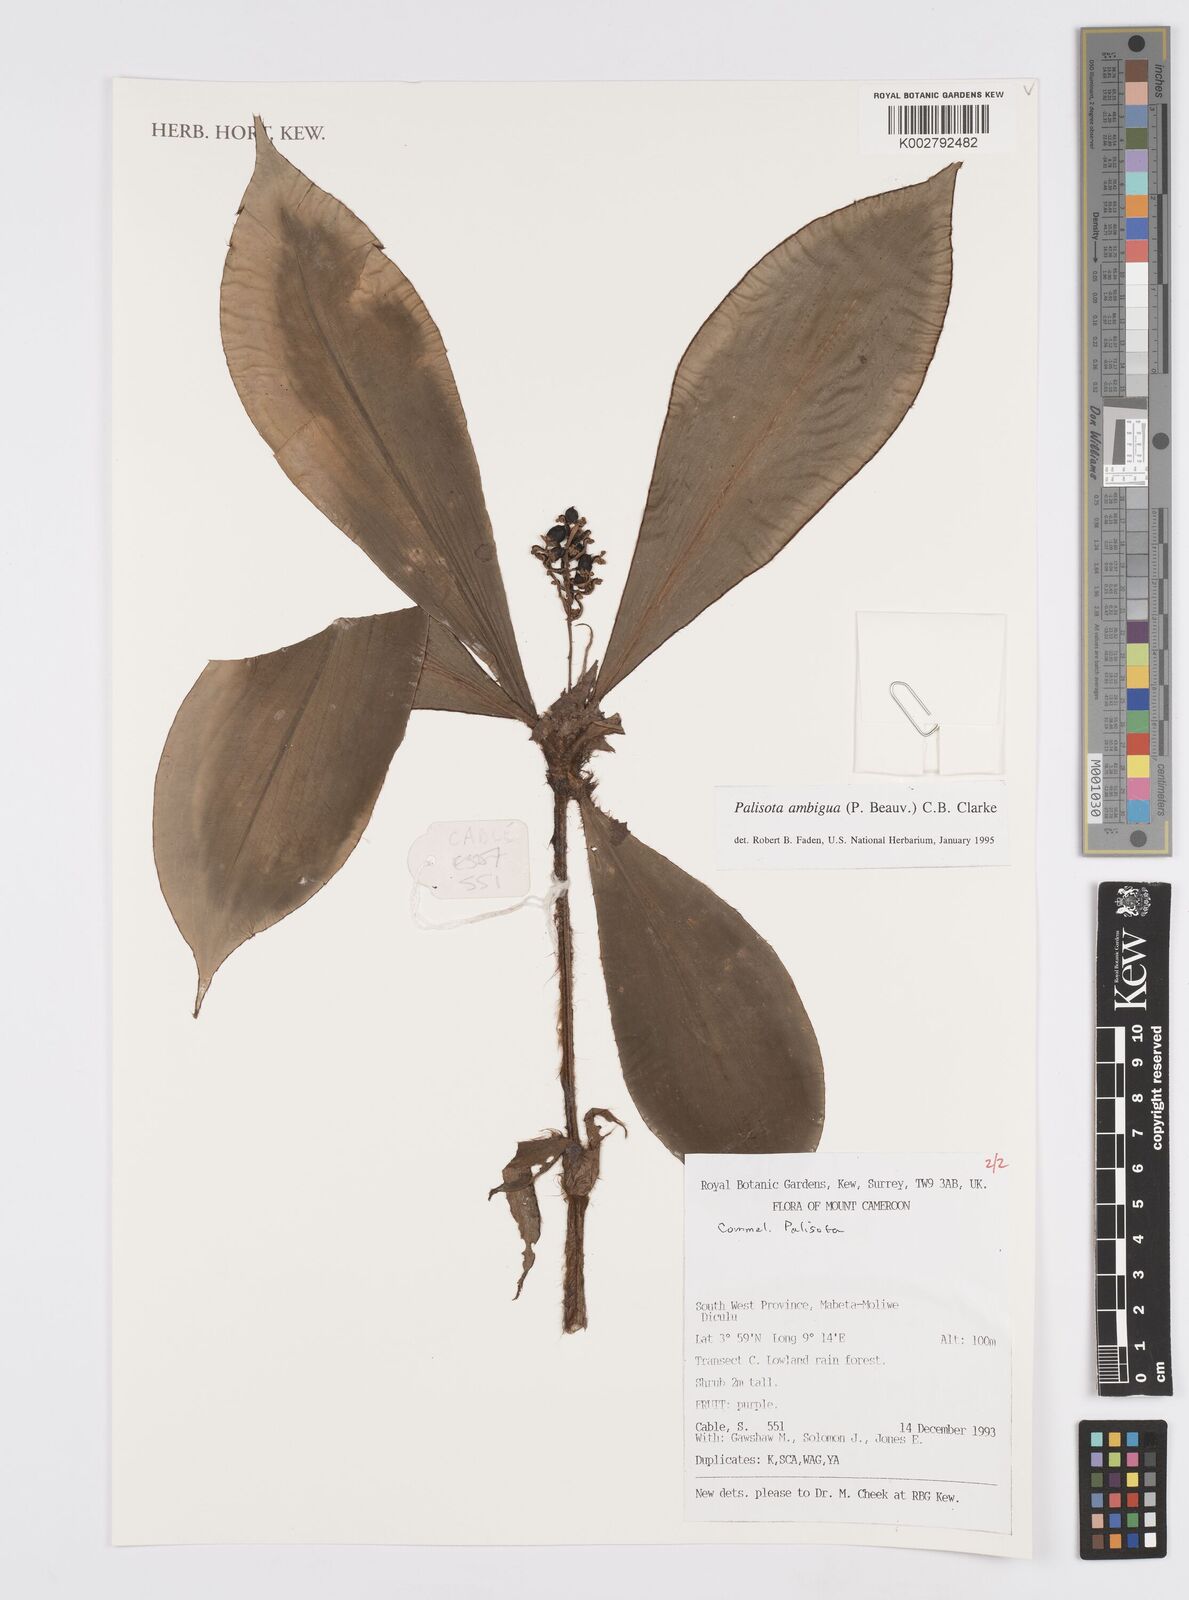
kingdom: Plantae
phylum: Tracheophyta
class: Liliopsida
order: Commelinales
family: Commelinaceae
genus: Palisota
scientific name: Palisota ambigua
